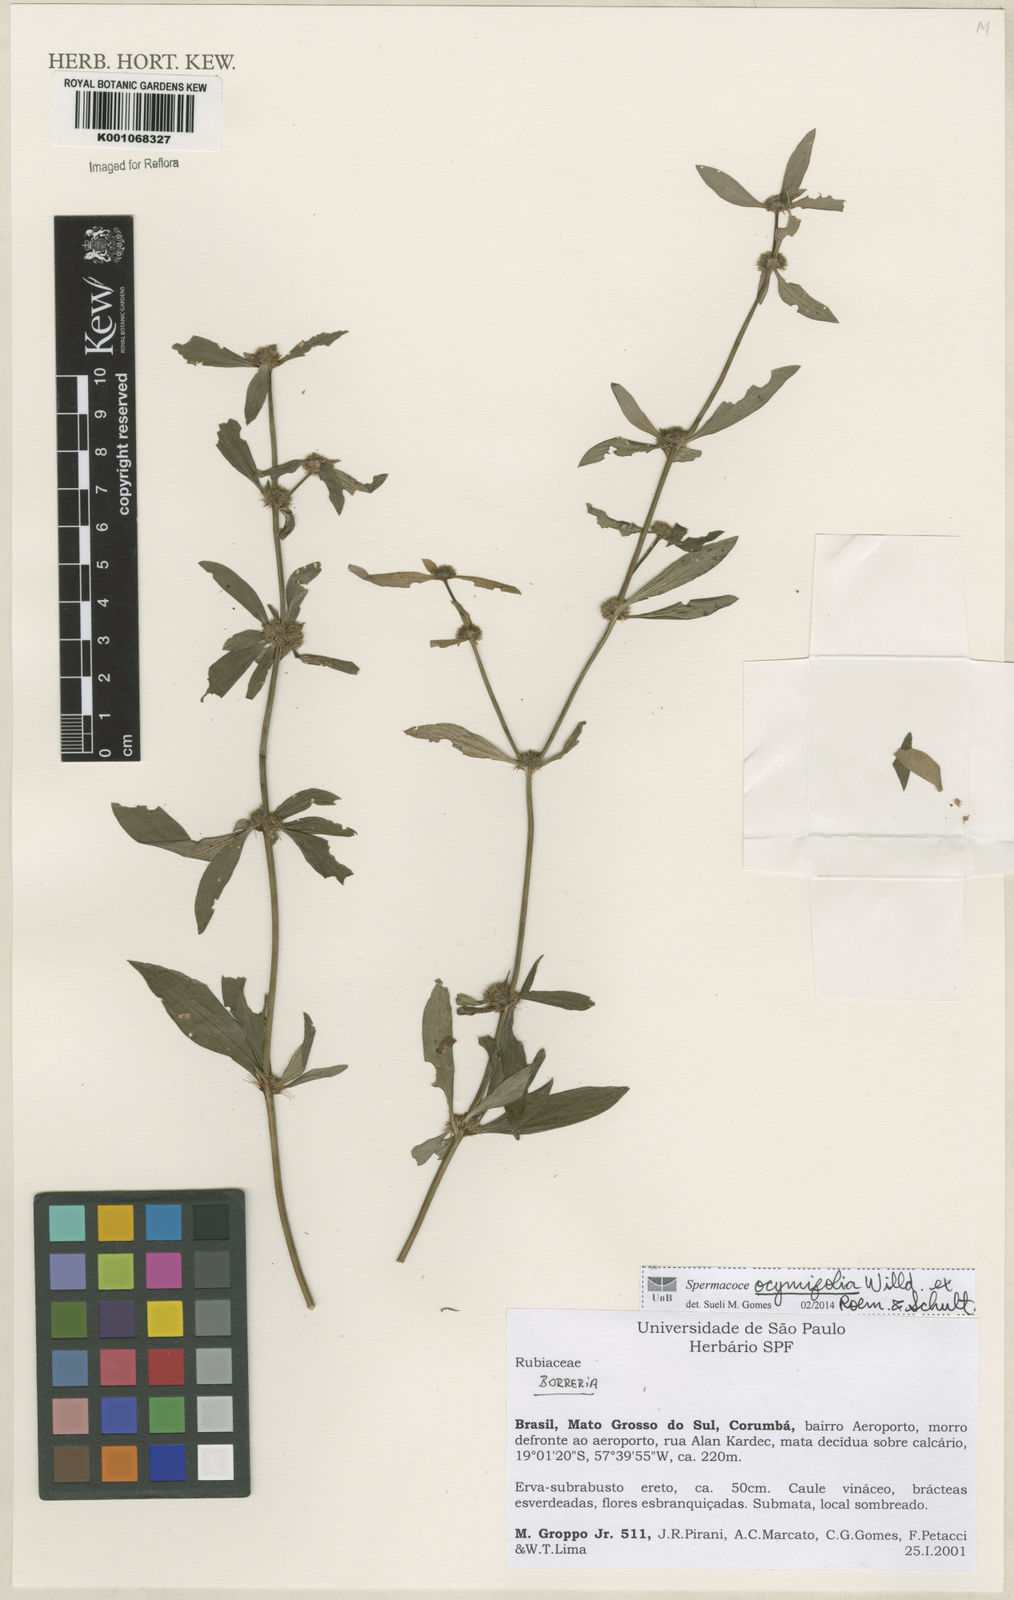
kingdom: Plantae
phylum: Tracheophyta
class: Magnoliopsida
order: Gentianales
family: Rubiaceae
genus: Spermacoce
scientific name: Spermacoce
